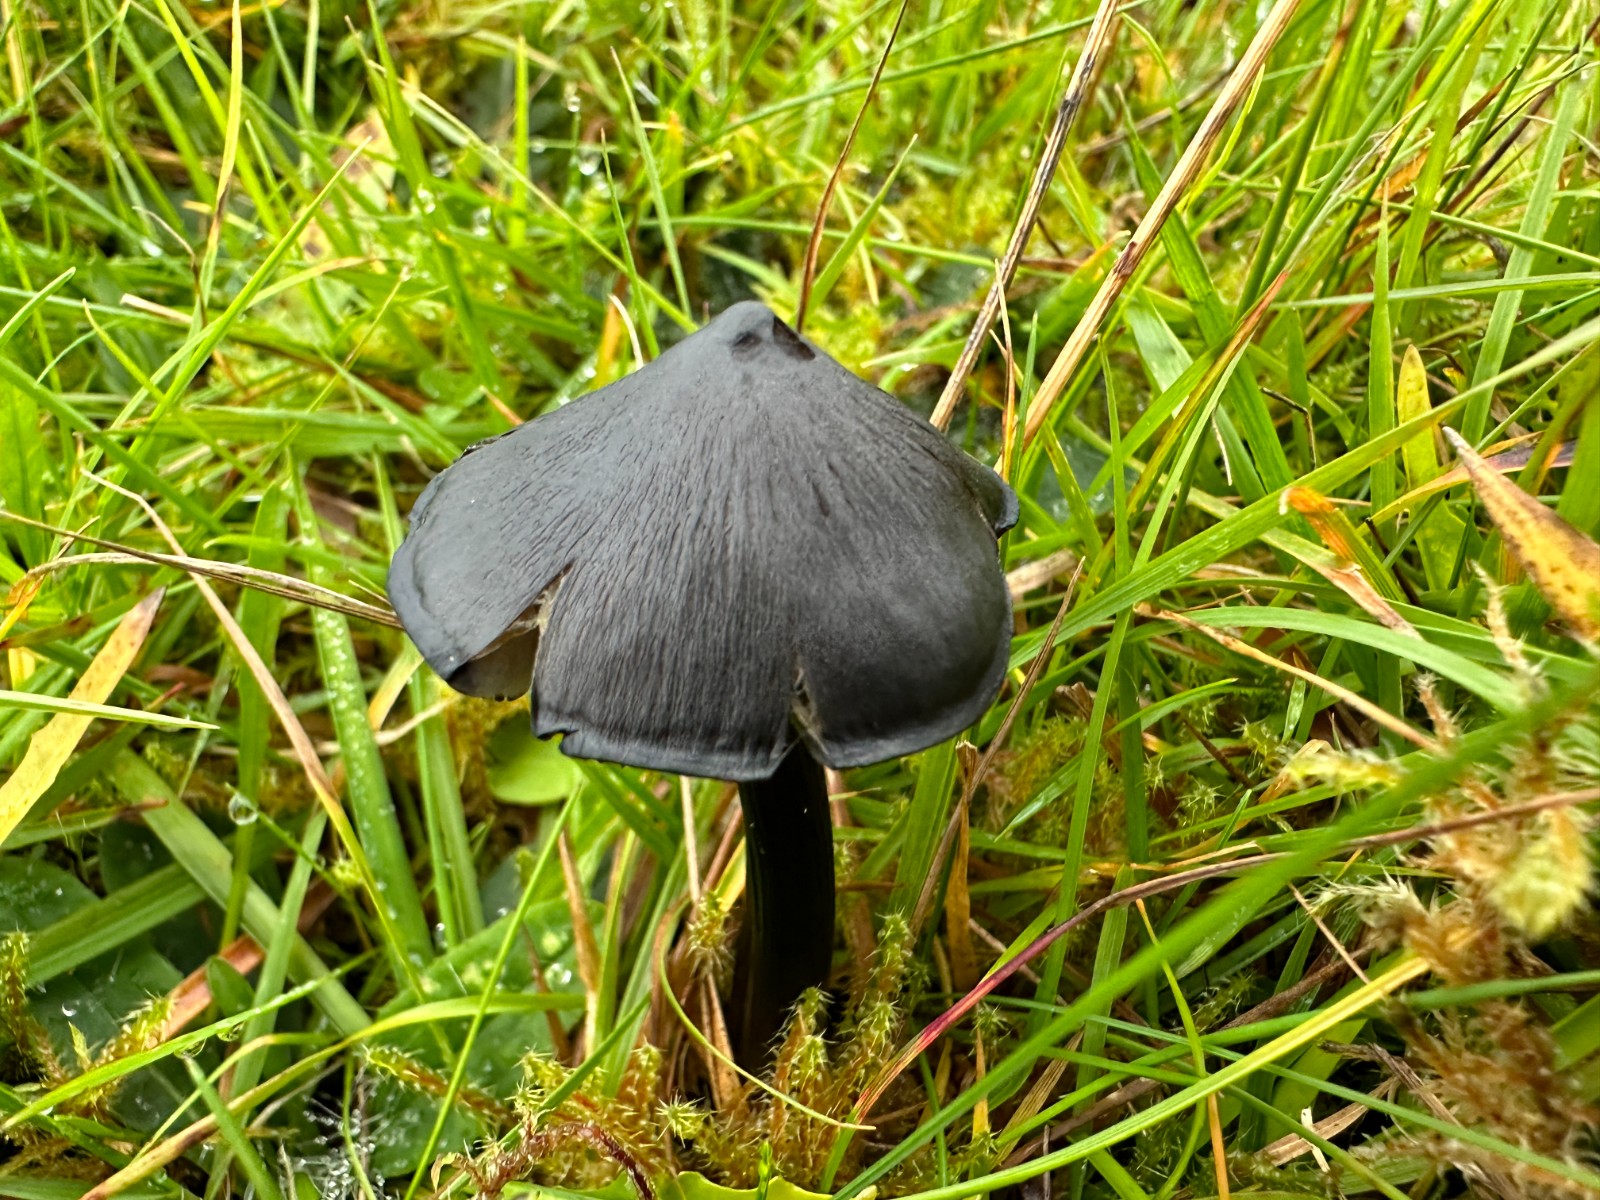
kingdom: Fungi
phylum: Basidiomycota
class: Agaricomycetes
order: Agaricales
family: Hygrophoraceae
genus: Hygrocybe
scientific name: Hygrocybe conica
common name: kegle-vokshat
